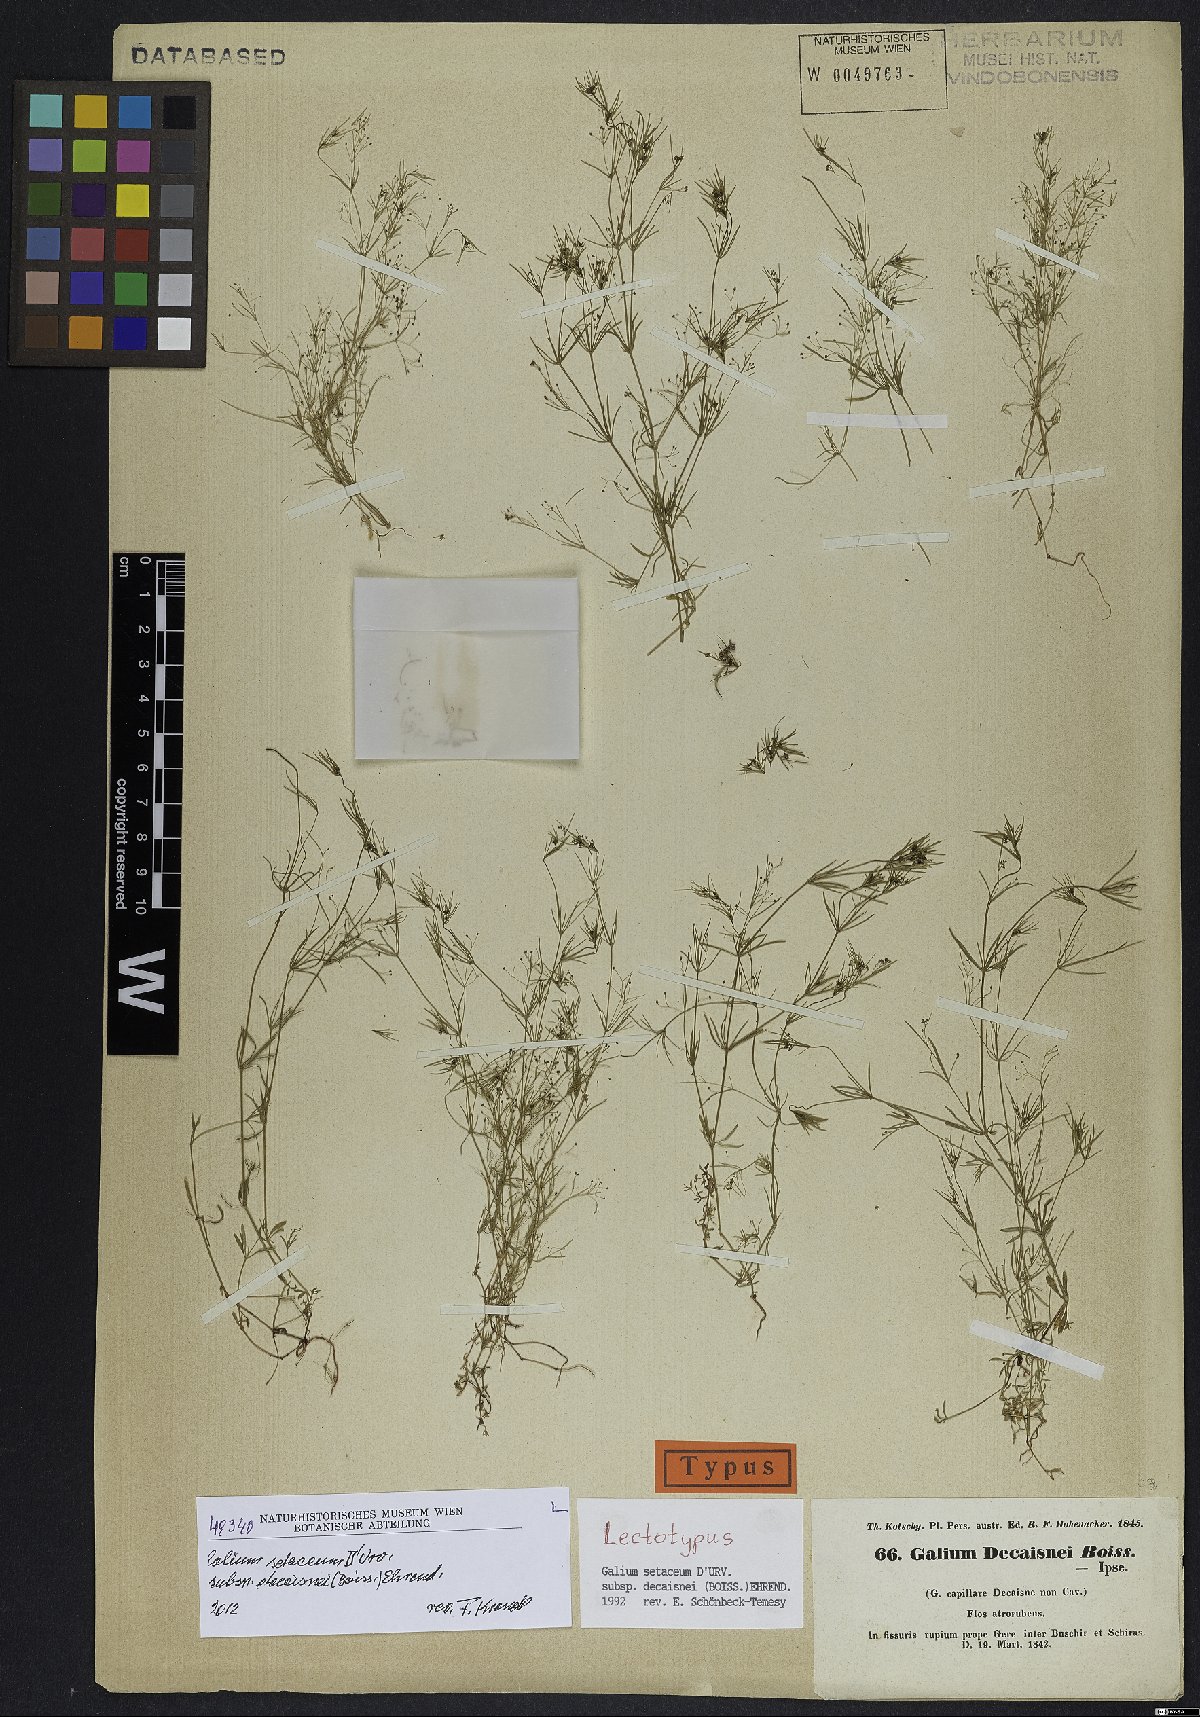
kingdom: Plantae
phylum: Tracheophyta
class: Magnoliopsida
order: Gentianales
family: Rubiaceae
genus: Galium
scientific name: Galium setaceum
